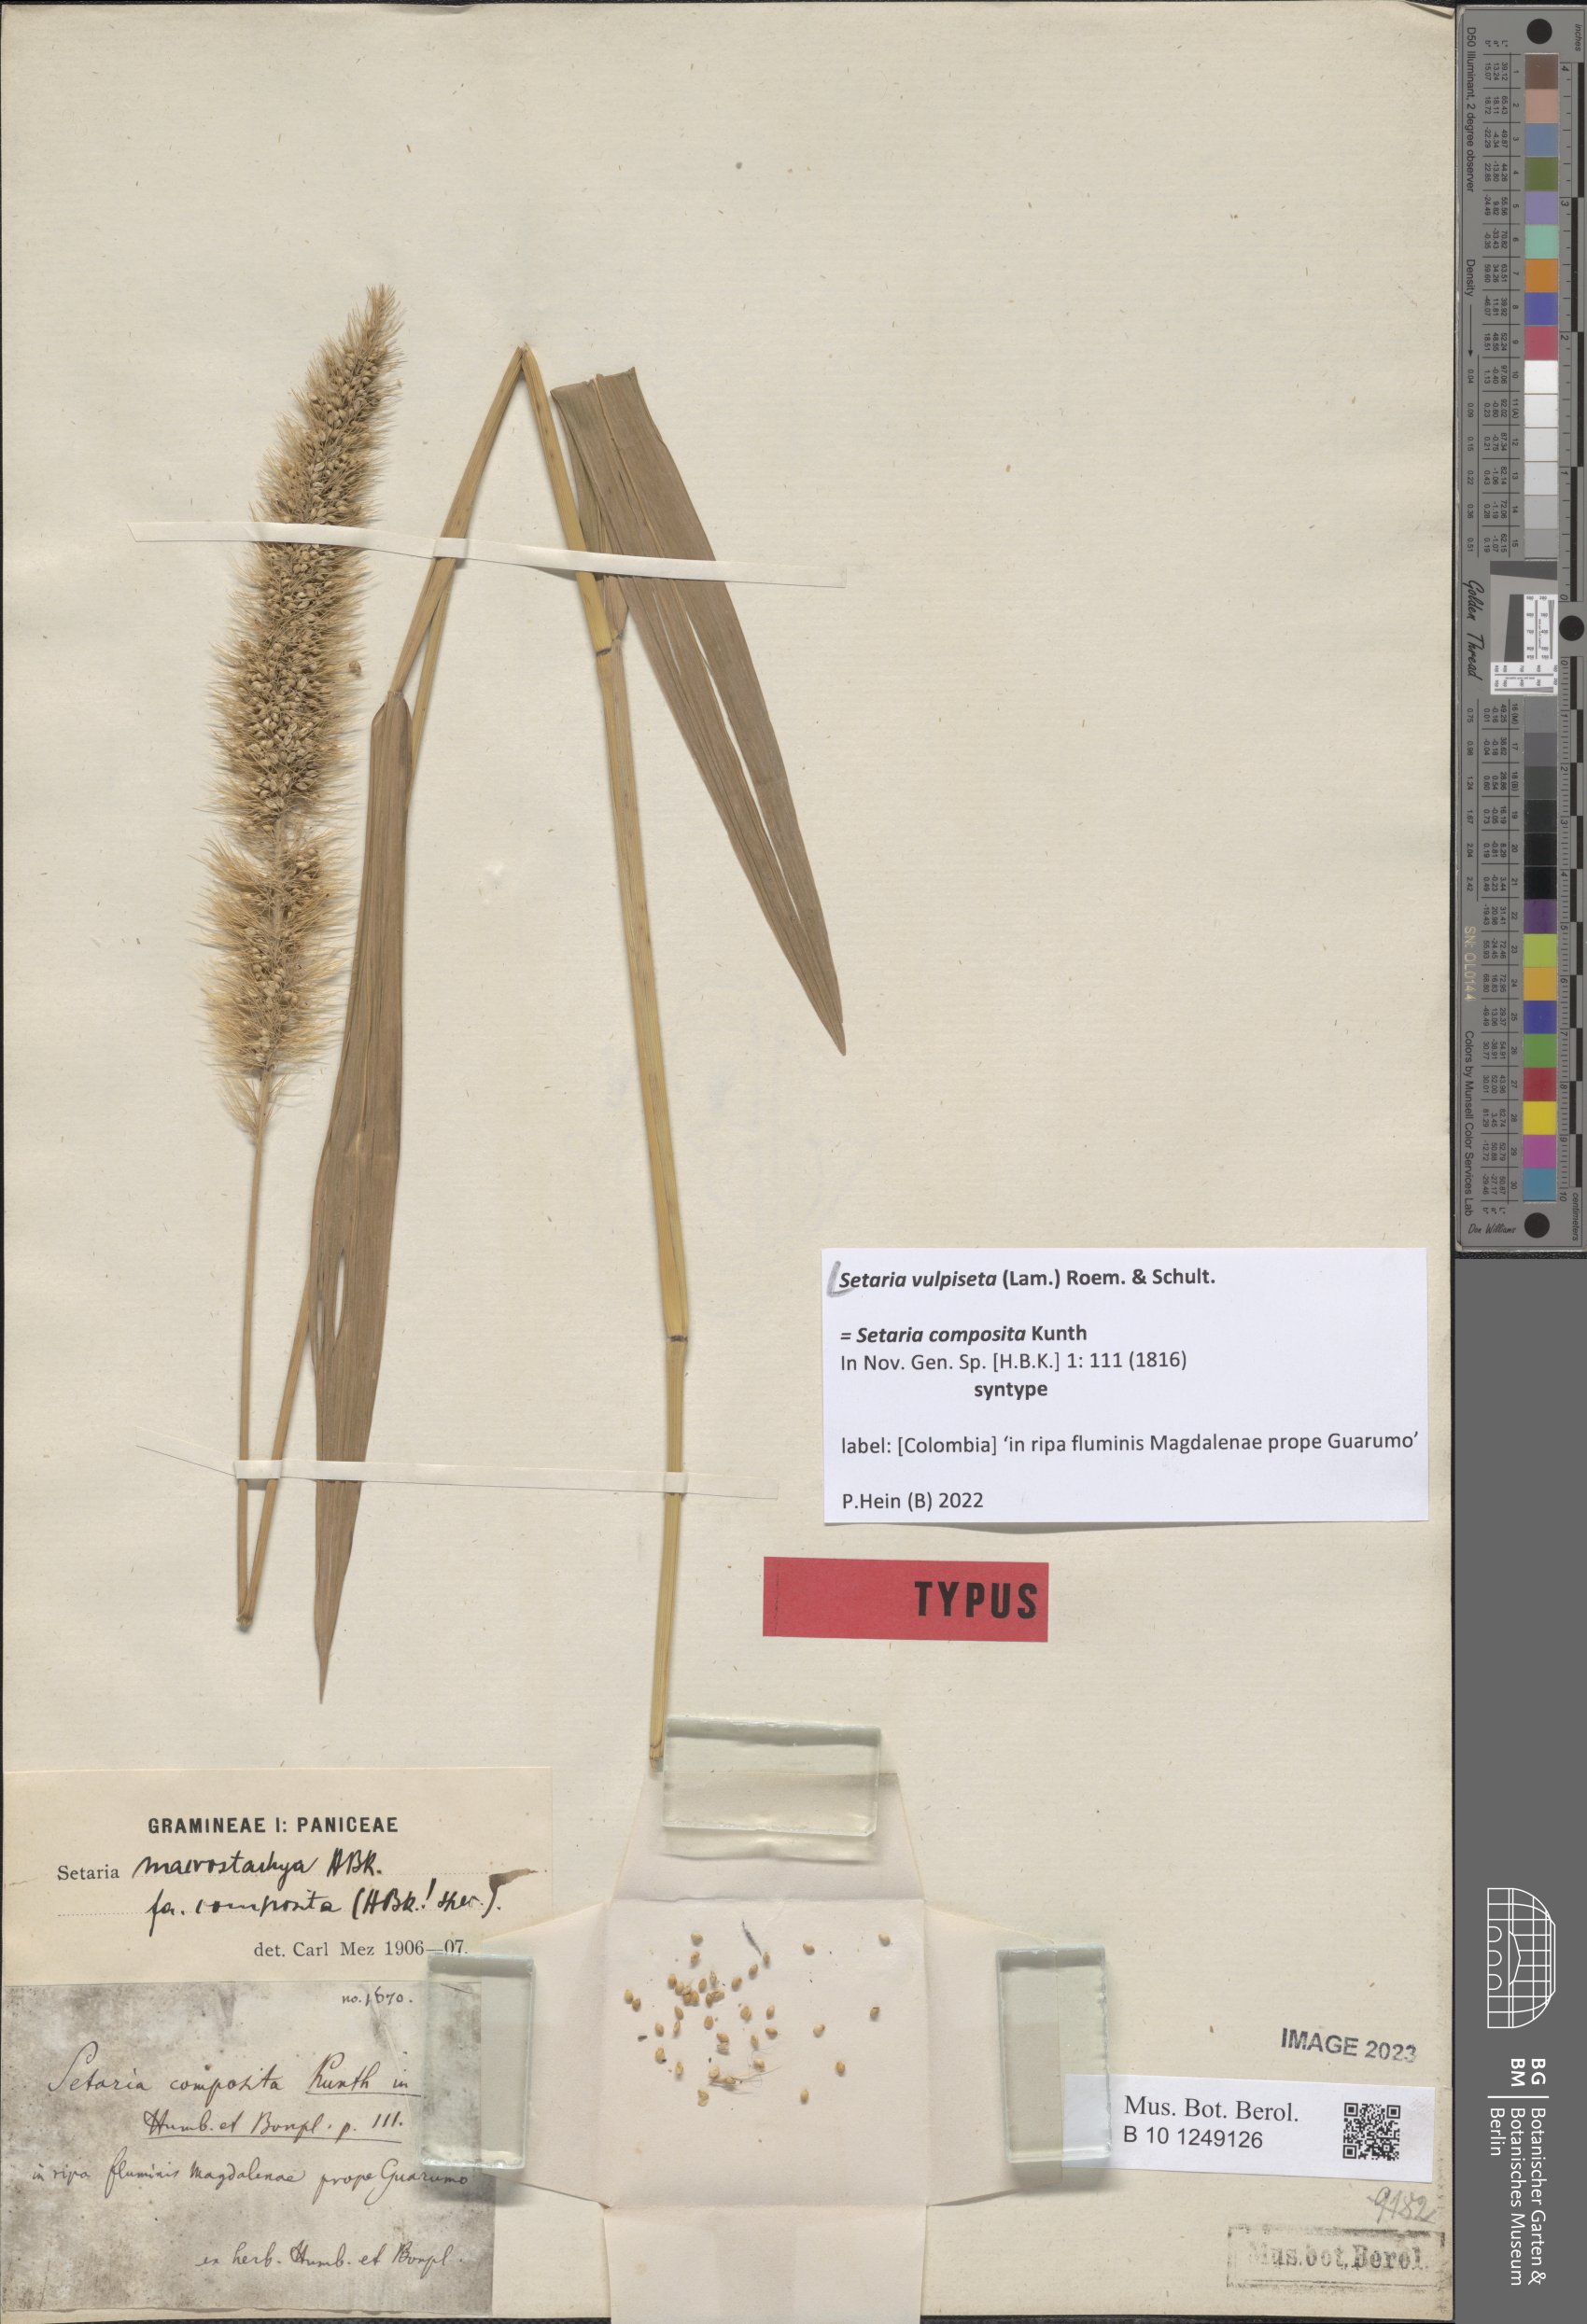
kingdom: Plantae
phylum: Tracheophyta
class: Liliopsida
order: Poales
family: Poaceae
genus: Setaria
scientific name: Setaria vulpiseta
